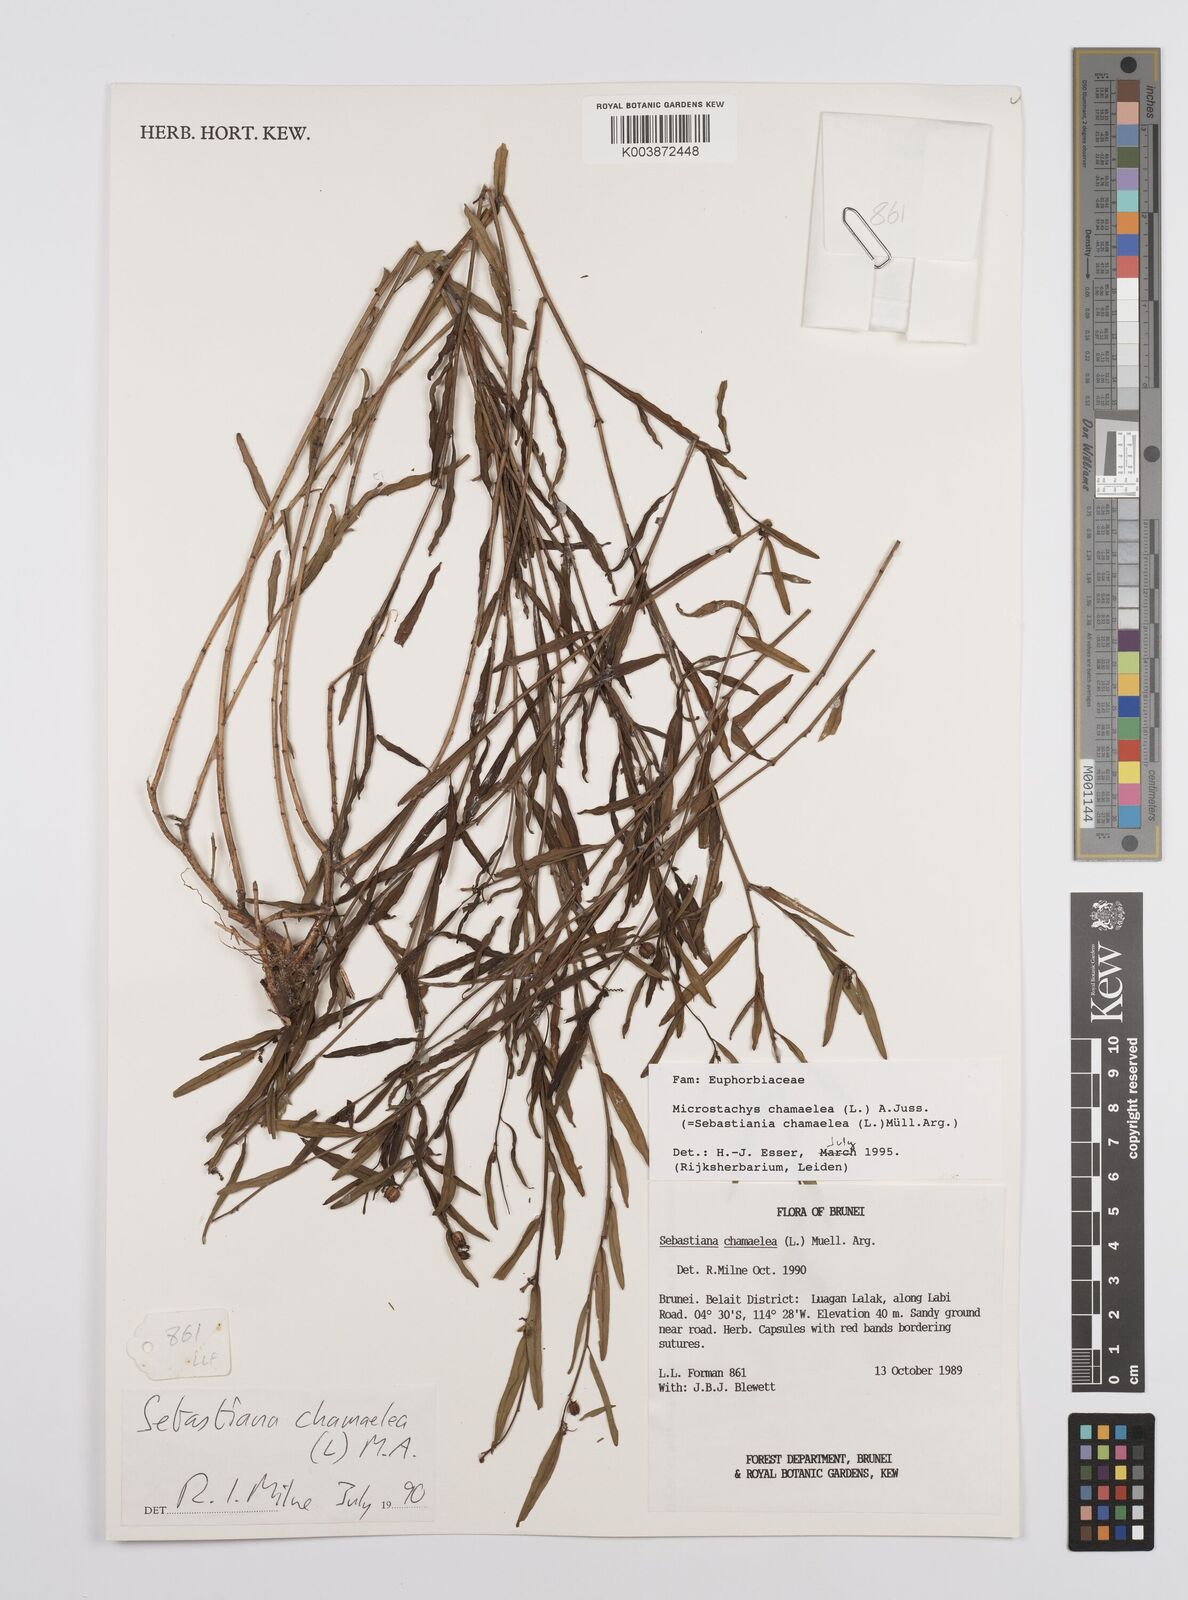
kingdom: Plantae
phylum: Tracheophyta
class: Magnoliopsida
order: Malpighiales
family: Euphorbiaceae
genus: Microstachys
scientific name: Microstachys chamaelea
